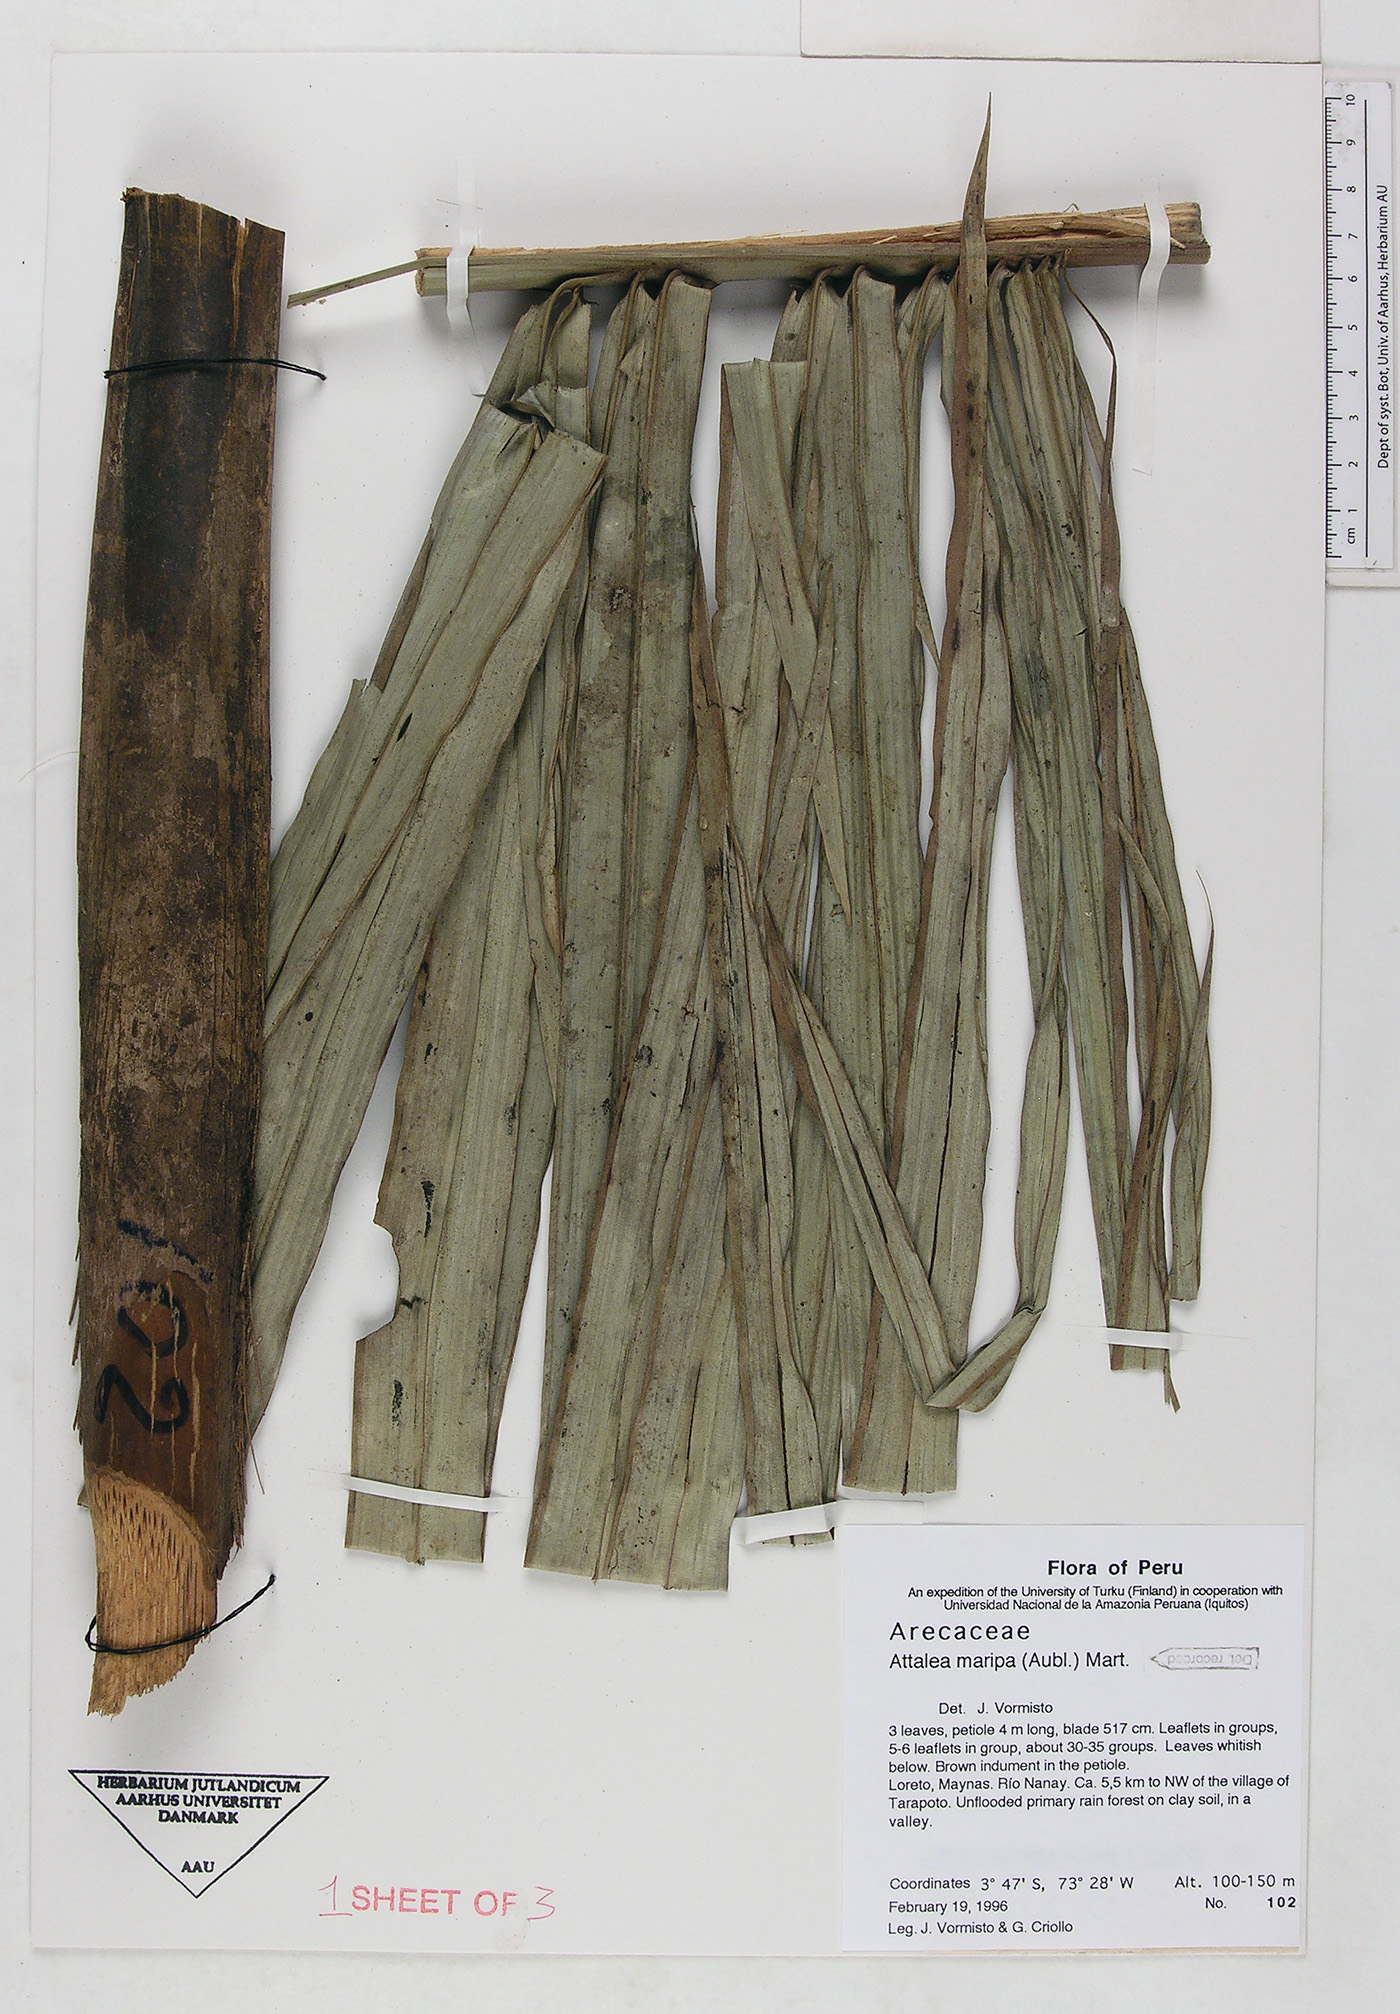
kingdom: Plantae
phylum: Tracheophyta
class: Liliopsida
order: Arecales
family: Arecaceae
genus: Attalea
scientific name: Attalea maripa
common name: Maripa palm
